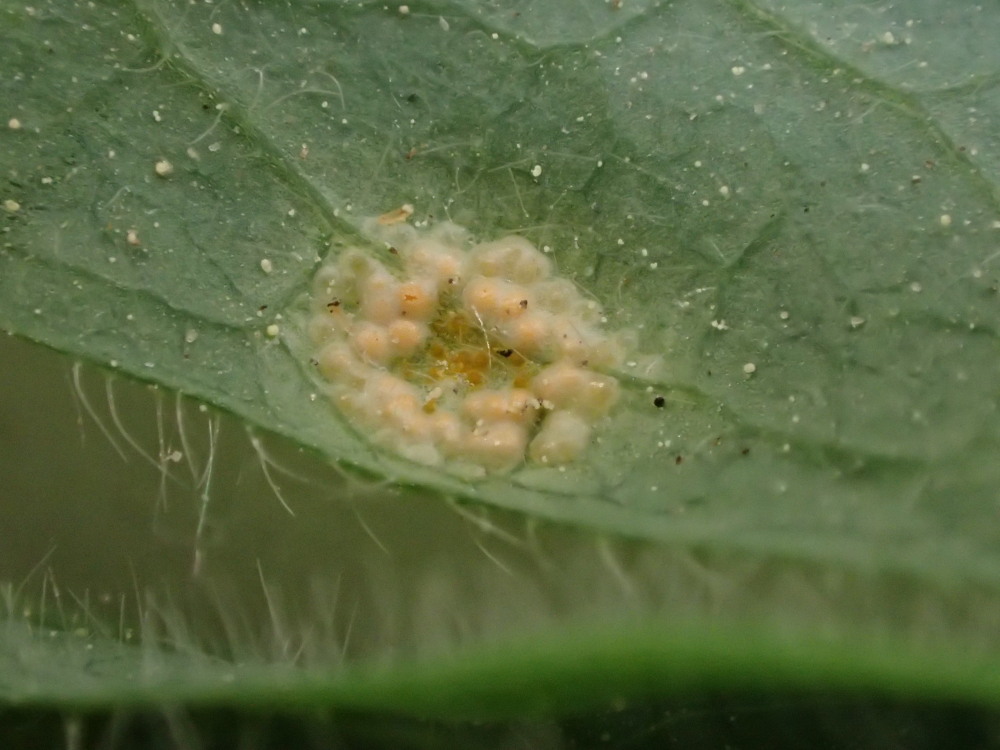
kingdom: Fungi
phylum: Basidiomycota
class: Pucciniomycetes
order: Pucciniales
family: Pucciniaceae
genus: Puccinia
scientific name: Puccinia festucae
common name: gedeblad-tvecellerust
